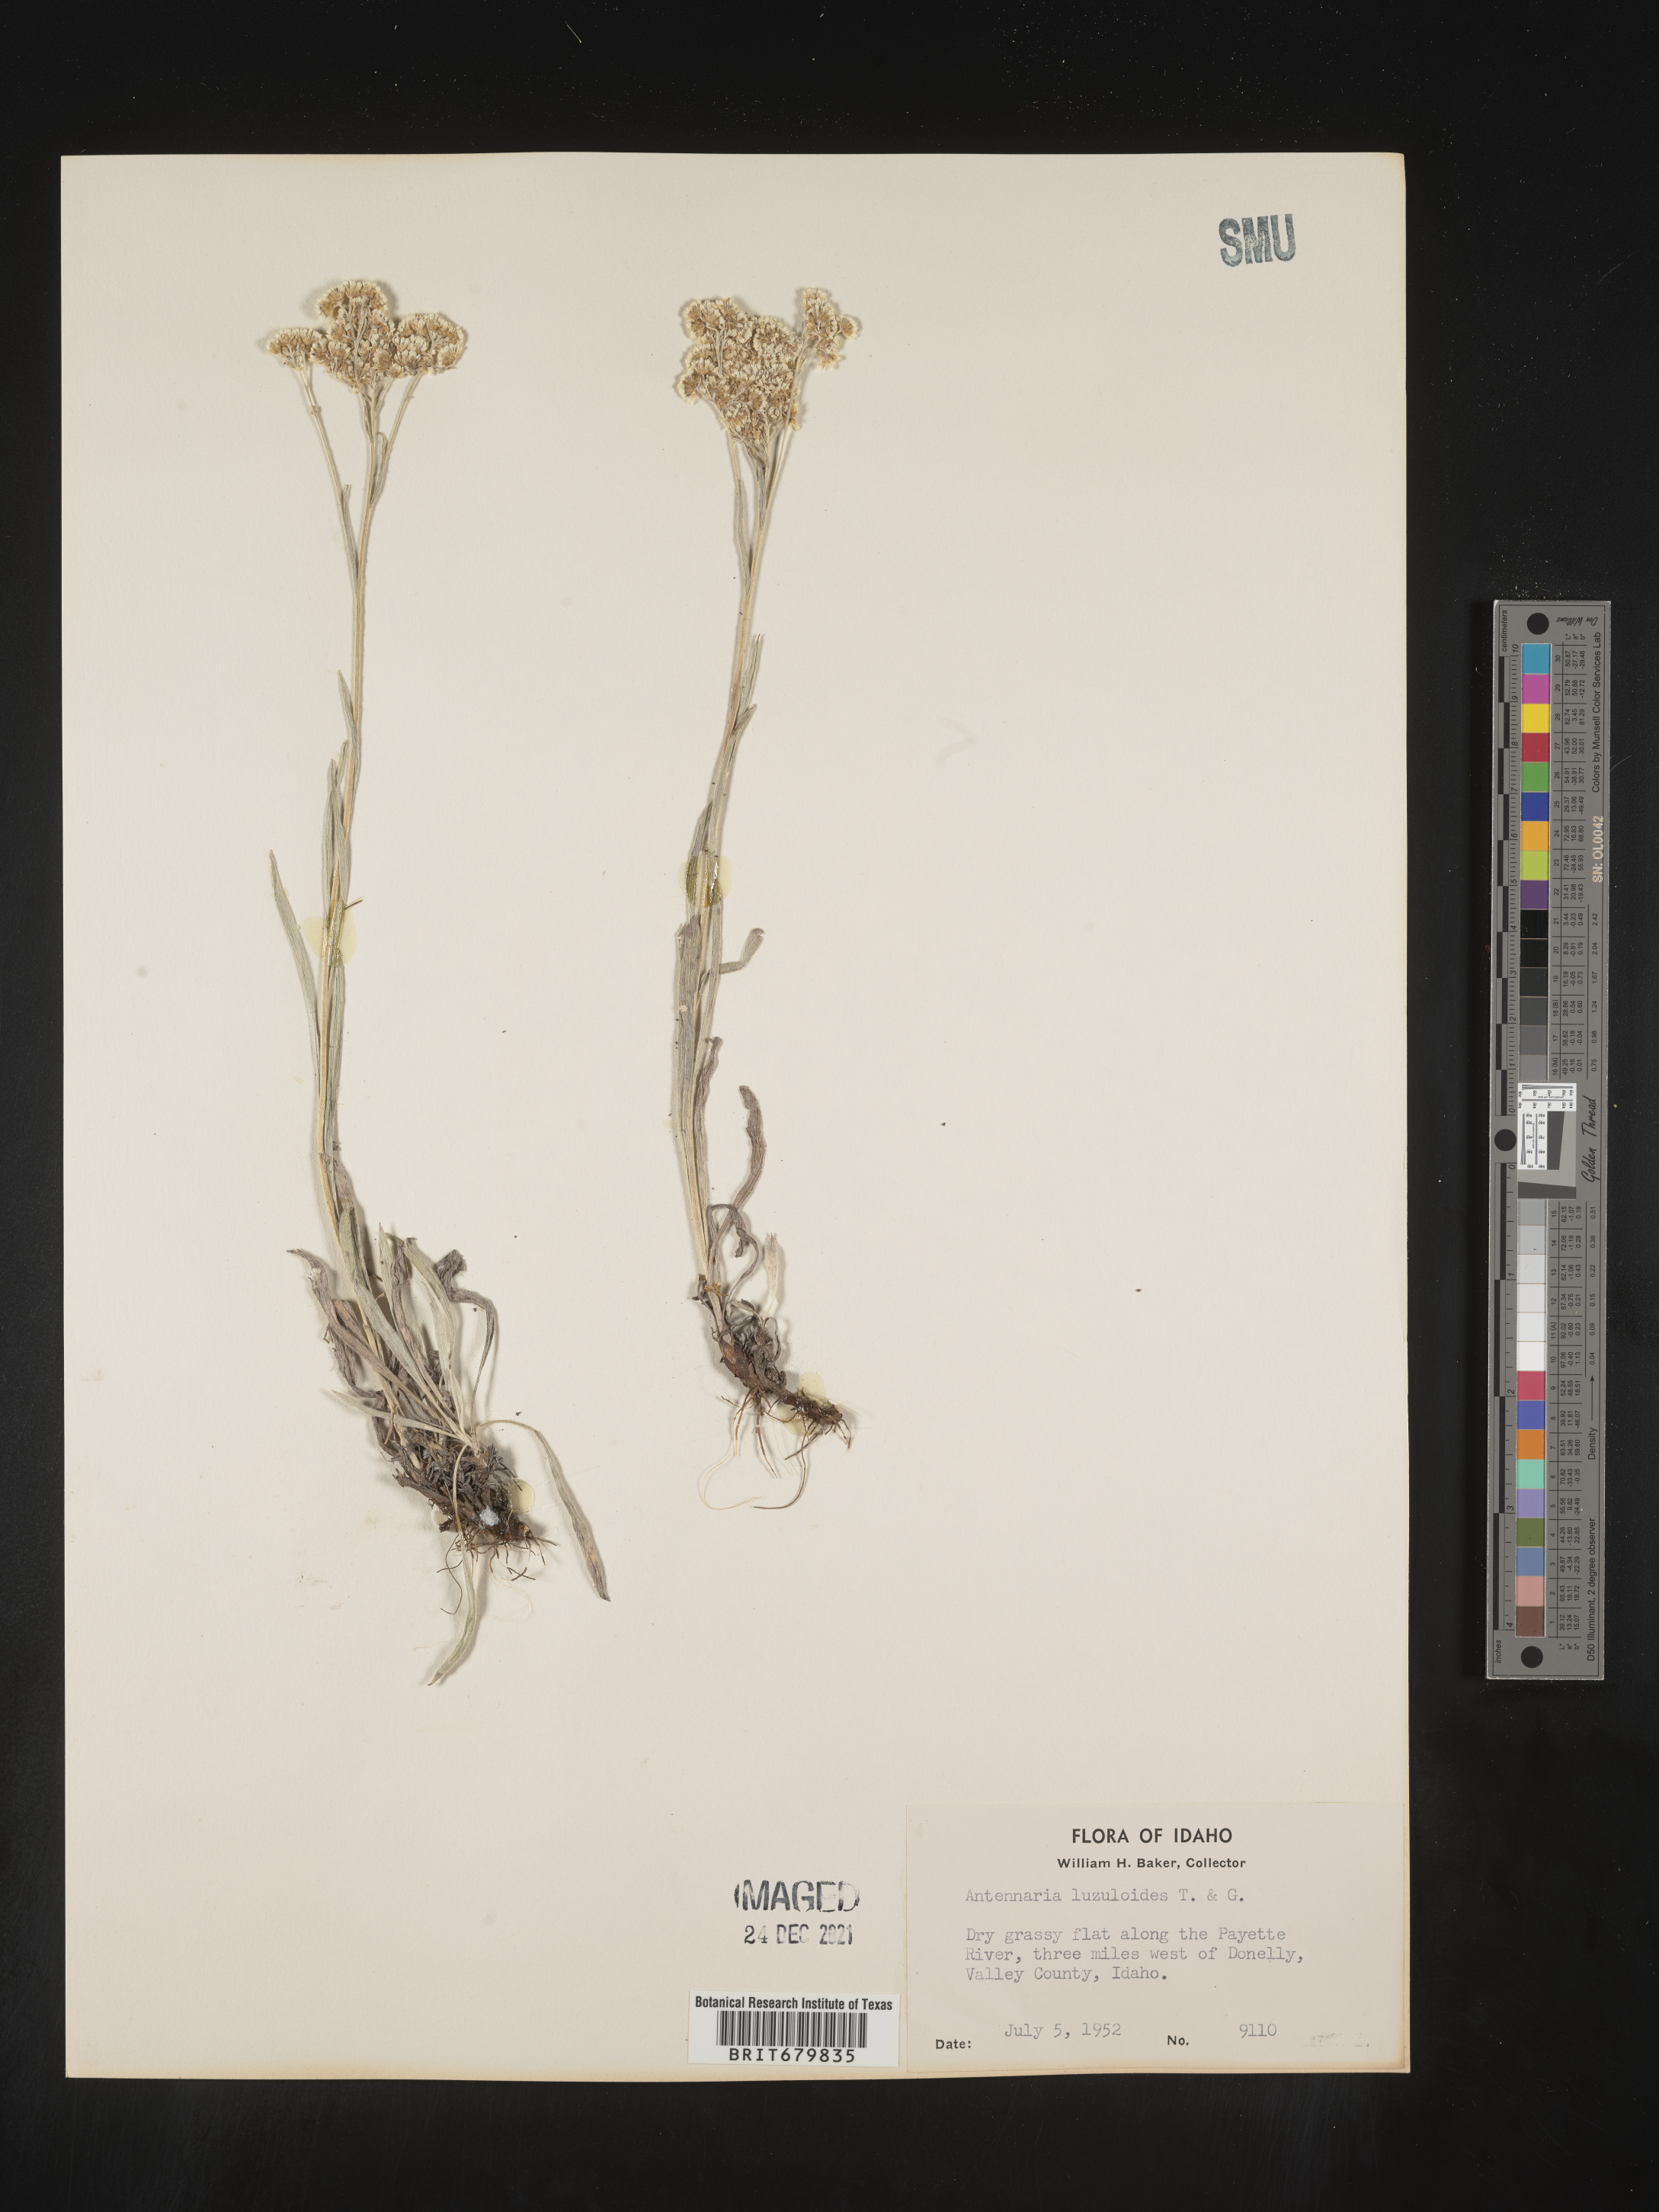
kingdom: Plantae
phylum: Tracheophyta
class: Magnoliopsida
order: Asterales
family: Asteraceae
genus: Antennaria
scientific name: Antennaria luzuloides
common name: Rush pussytoes
